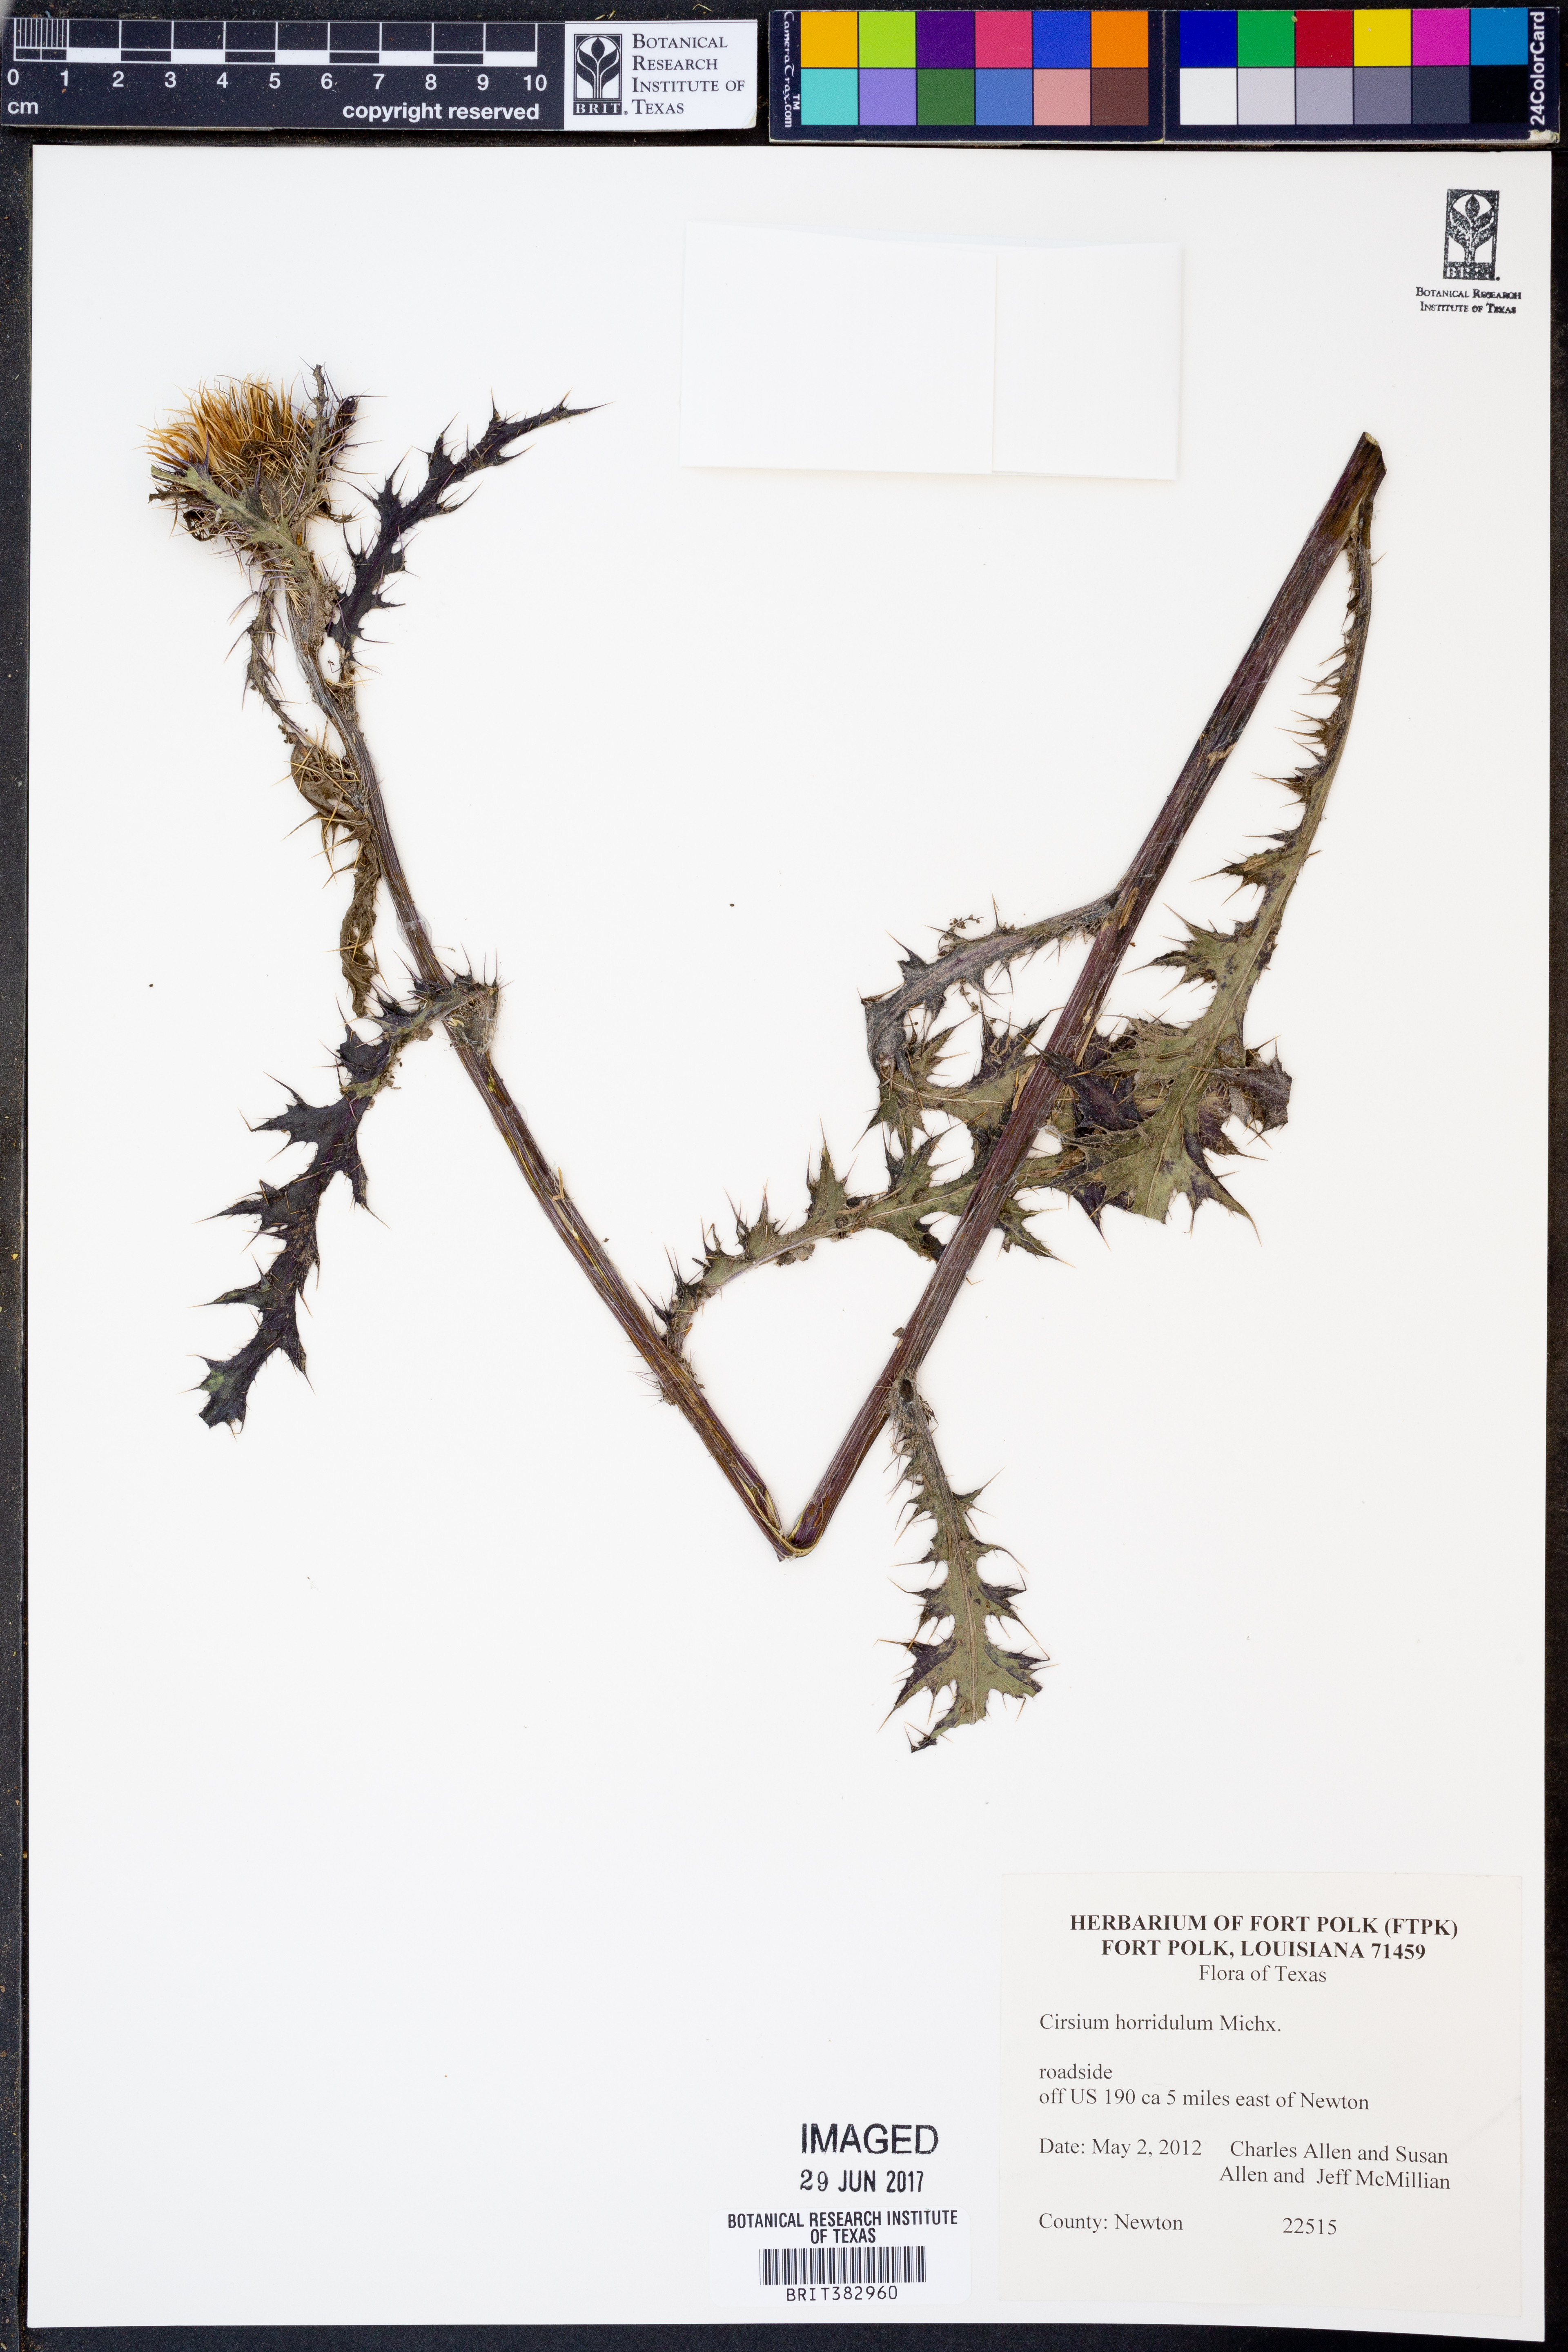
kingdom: Plantae
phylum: Tracheophyta
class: Magnoliopsida
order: Asterales
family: Asteraceae
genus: Cirsium
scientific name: Cirsium horridulum
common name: Bristly thistle
